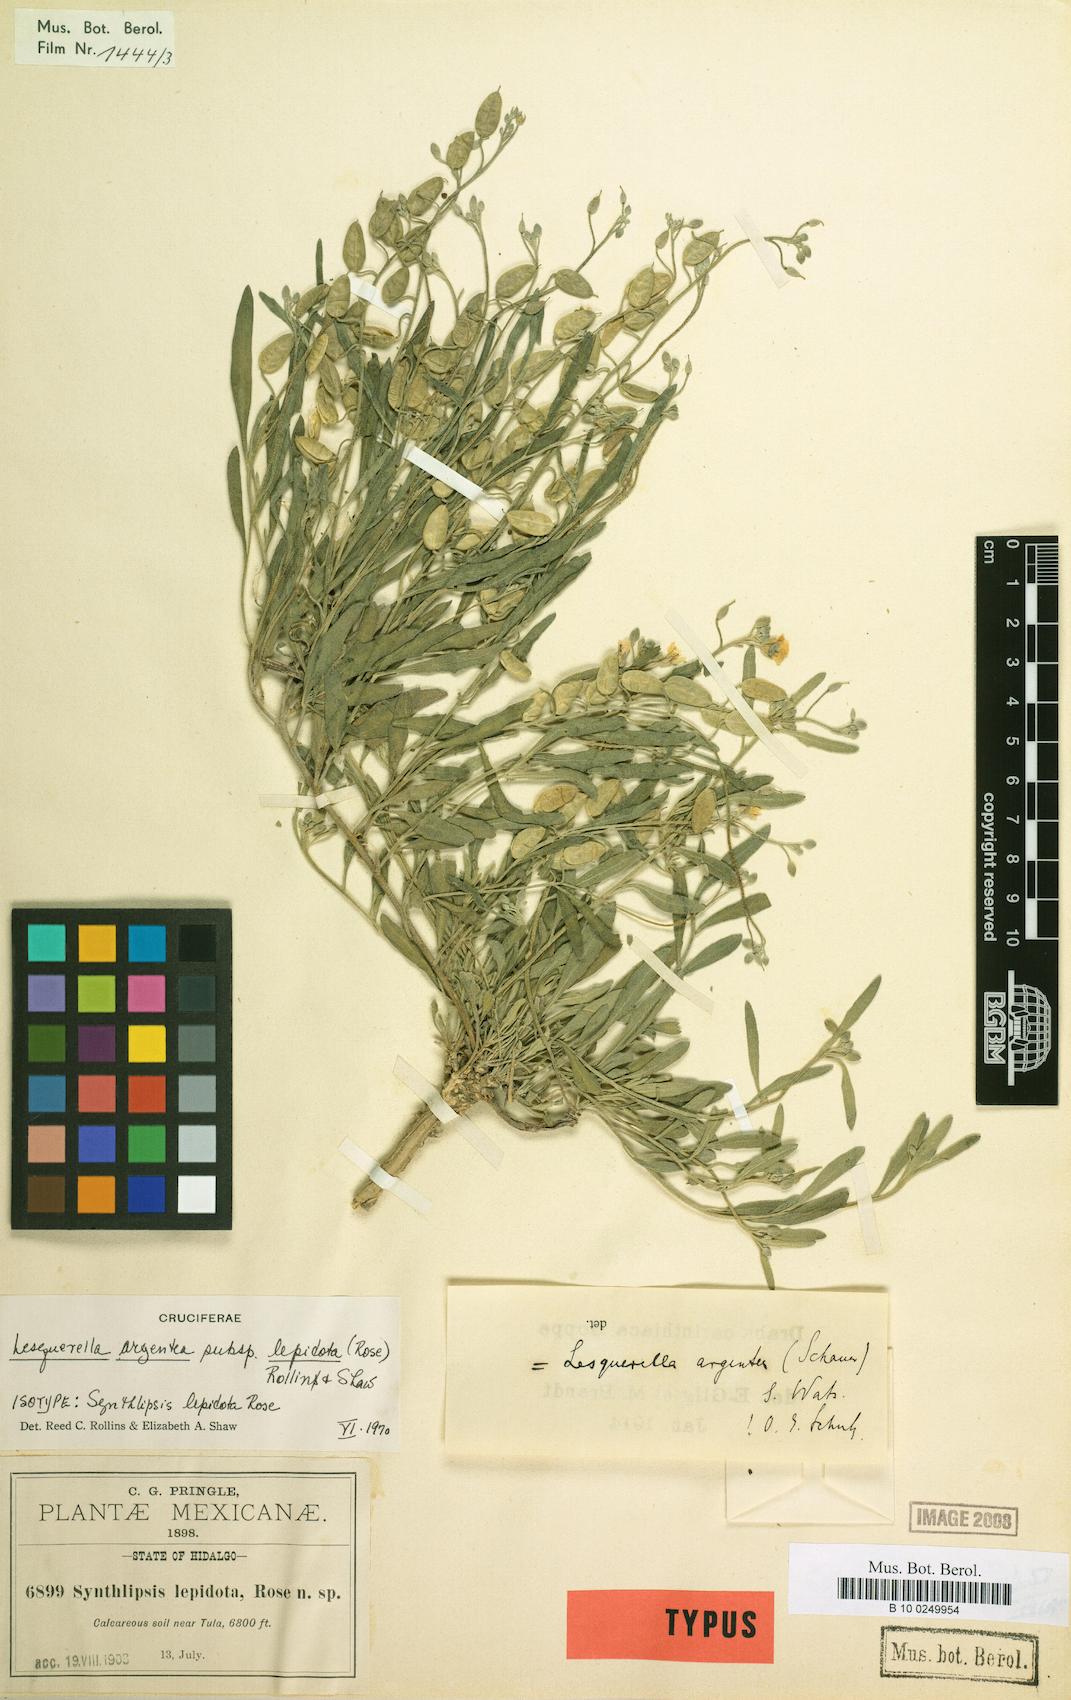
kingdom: Plantae
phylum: Tracheophyta
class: Magnoliopsida
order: Brassicales
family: Brassicaceae
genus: Physaria
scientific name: Physaria rosei
